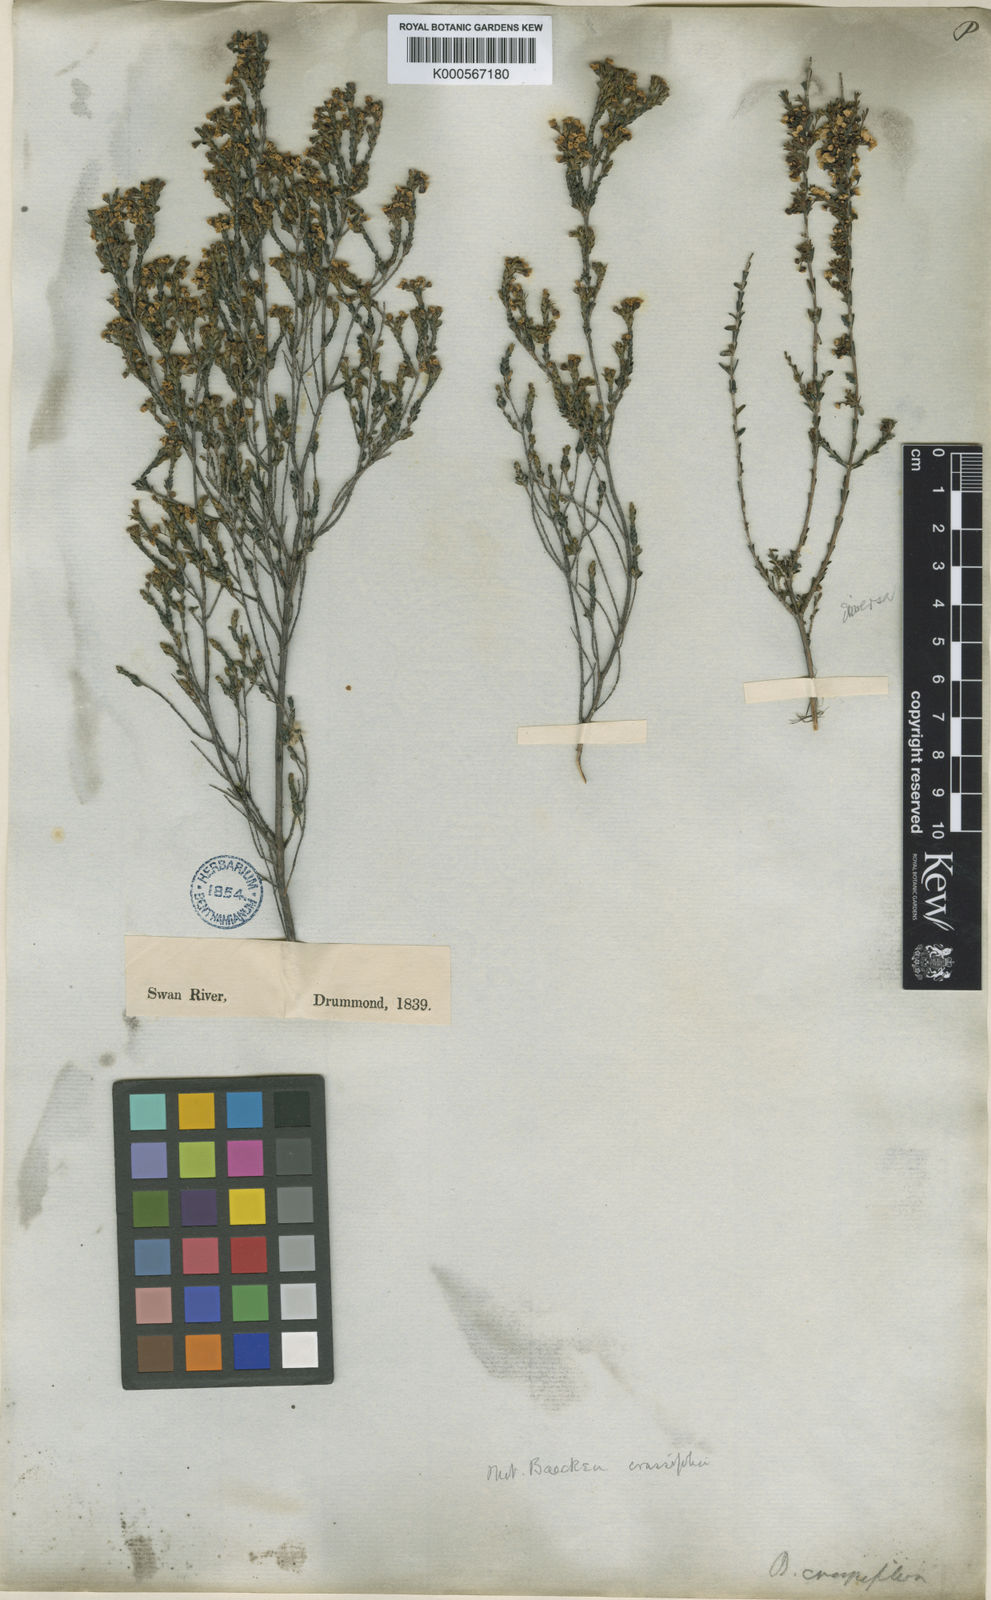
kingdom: Plantae
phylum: Tracheophyta
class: Magnoliopsida
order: Myrtales
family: Myrtaceae
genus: Baeckea
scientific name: Baeckea
